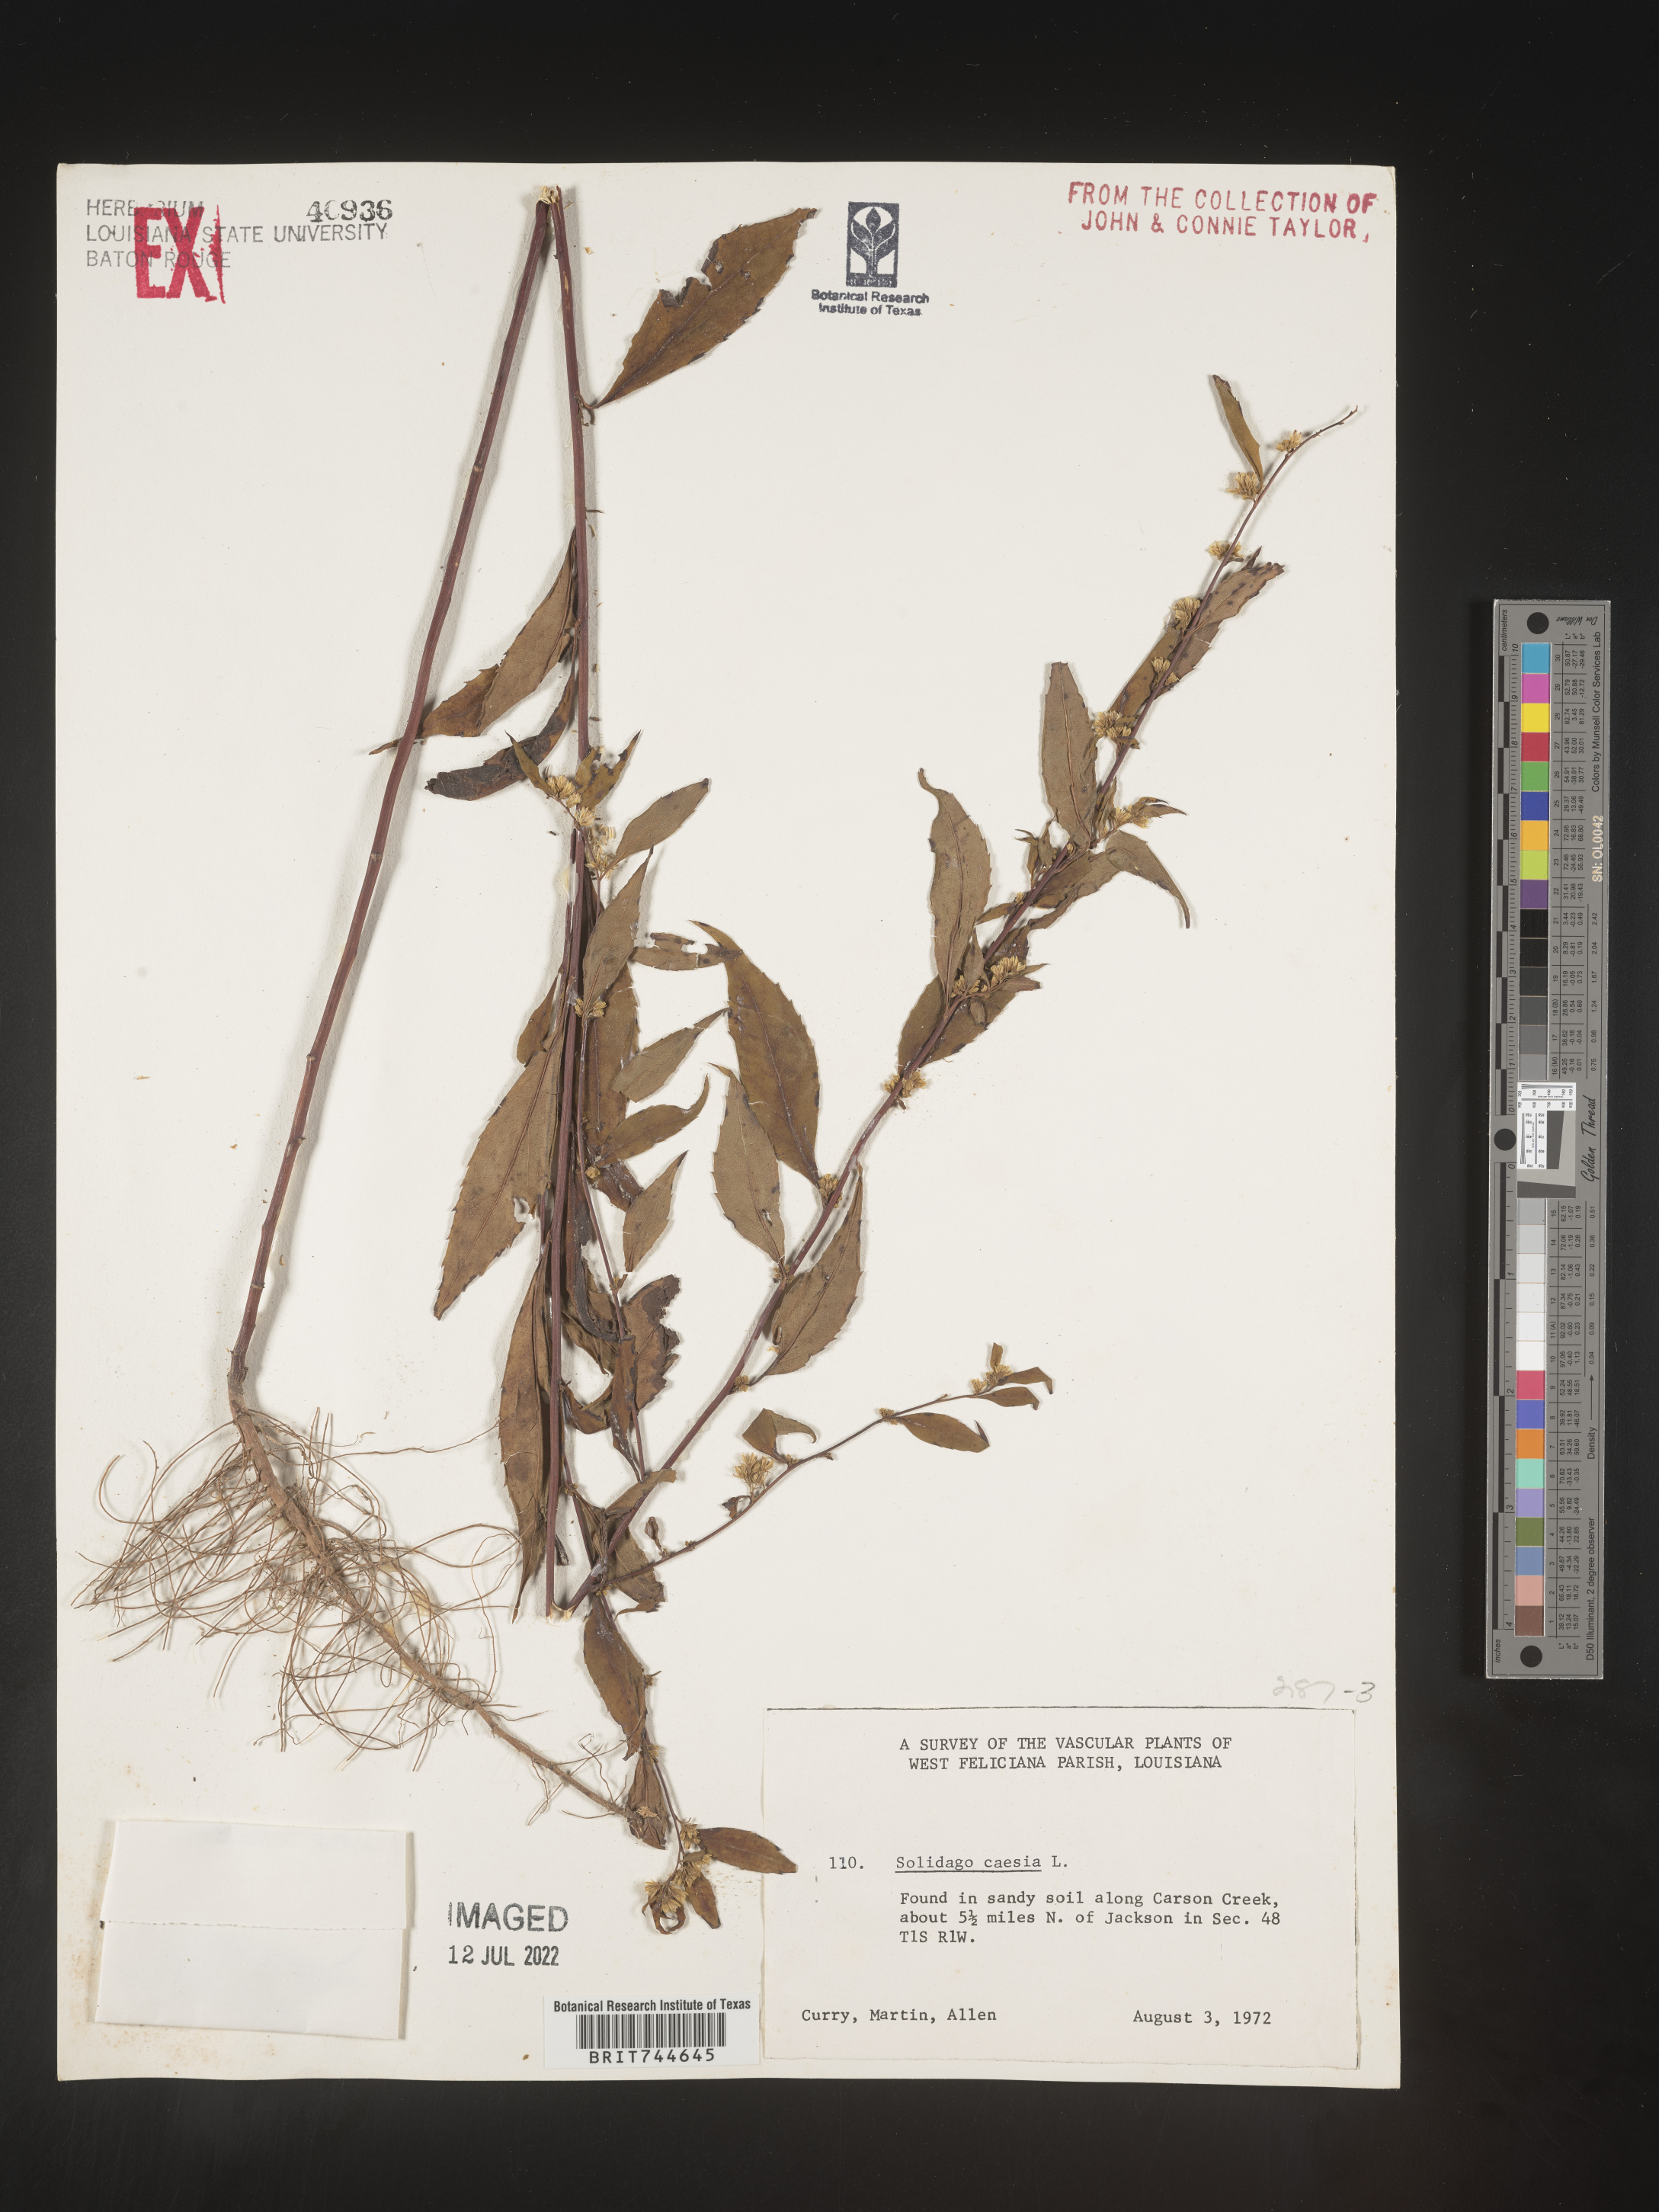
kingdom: Plantae
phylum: Tracheophyta
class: Magnoliopsida
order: Asterales
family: Asteraceae
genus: Solidago
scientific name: Solidago caesia
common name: Woodland goldenrod
